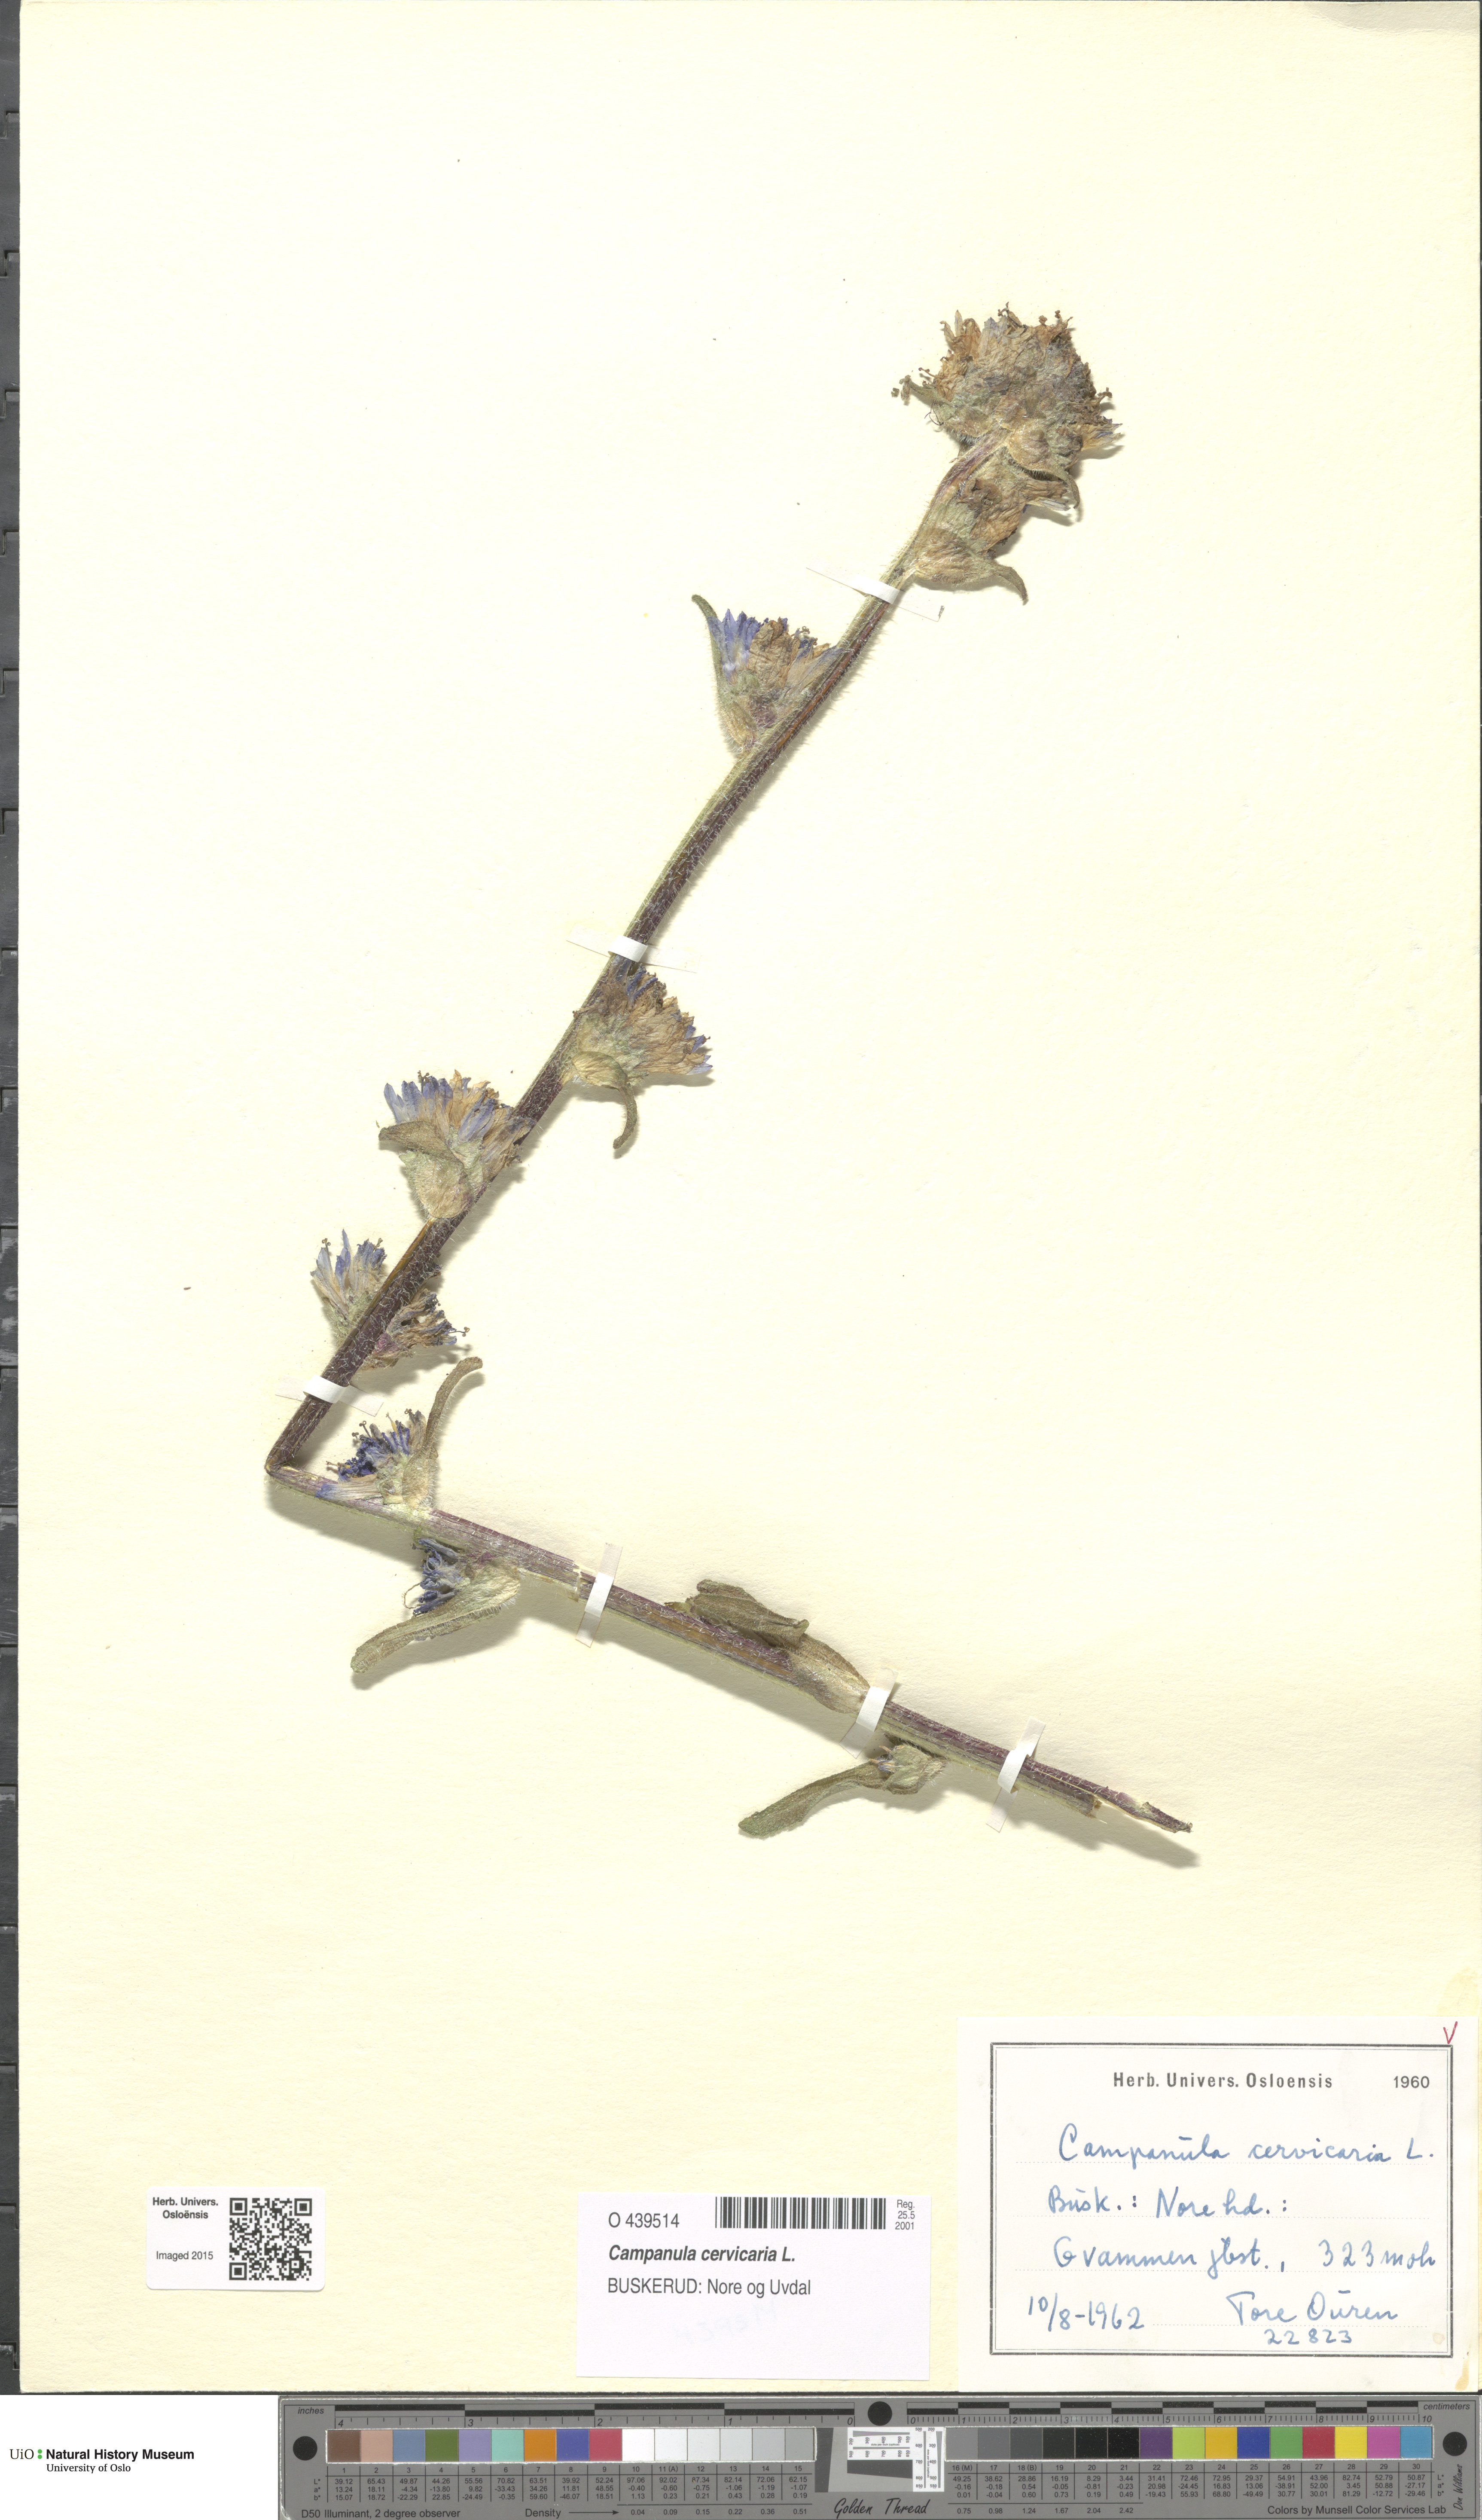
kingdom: Plantae
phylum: Tracheophyta
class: Magnoliopsida
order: Asterales
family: Campanulaceae
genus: Campanula
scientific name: Campanula cervicaria
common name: Bristly bellflower
